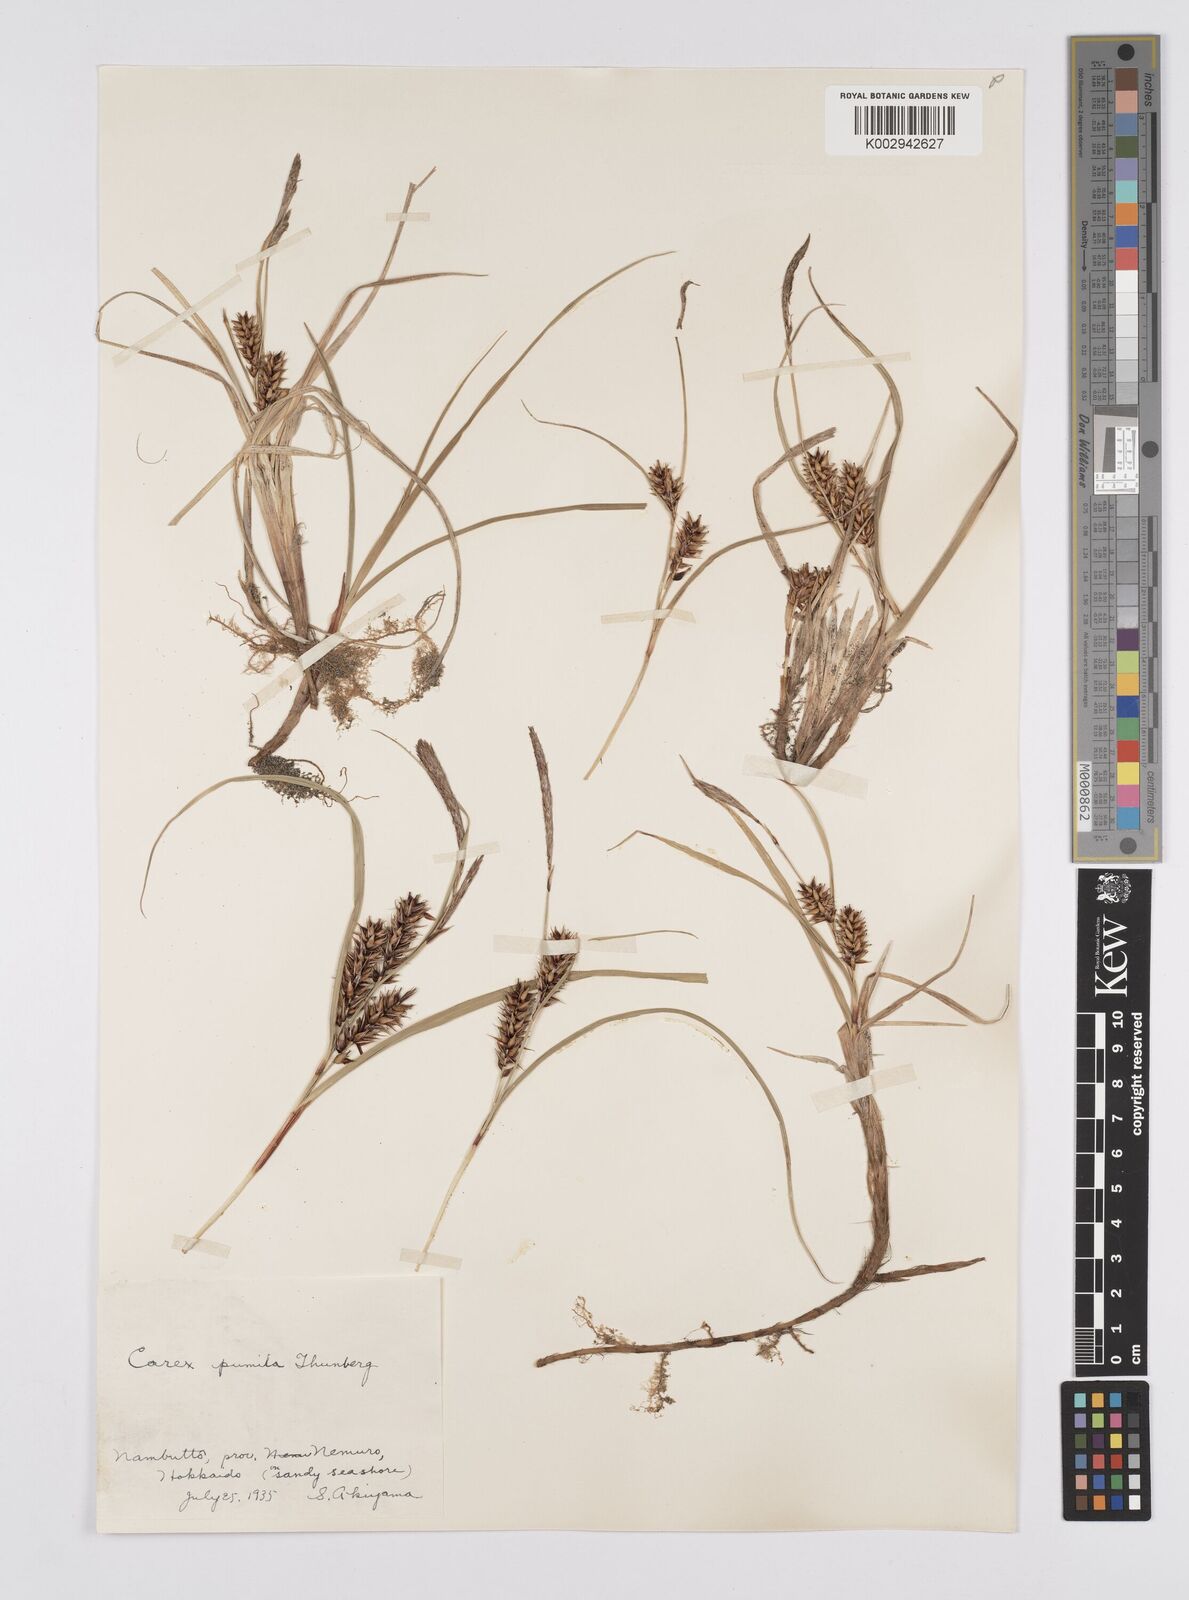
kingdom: Plantae
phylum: Tracheophyta
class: Liliopsida
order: Poales
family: Cyperaceae
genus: Carex
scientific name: Carex pumila
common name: Dwarf sedge
